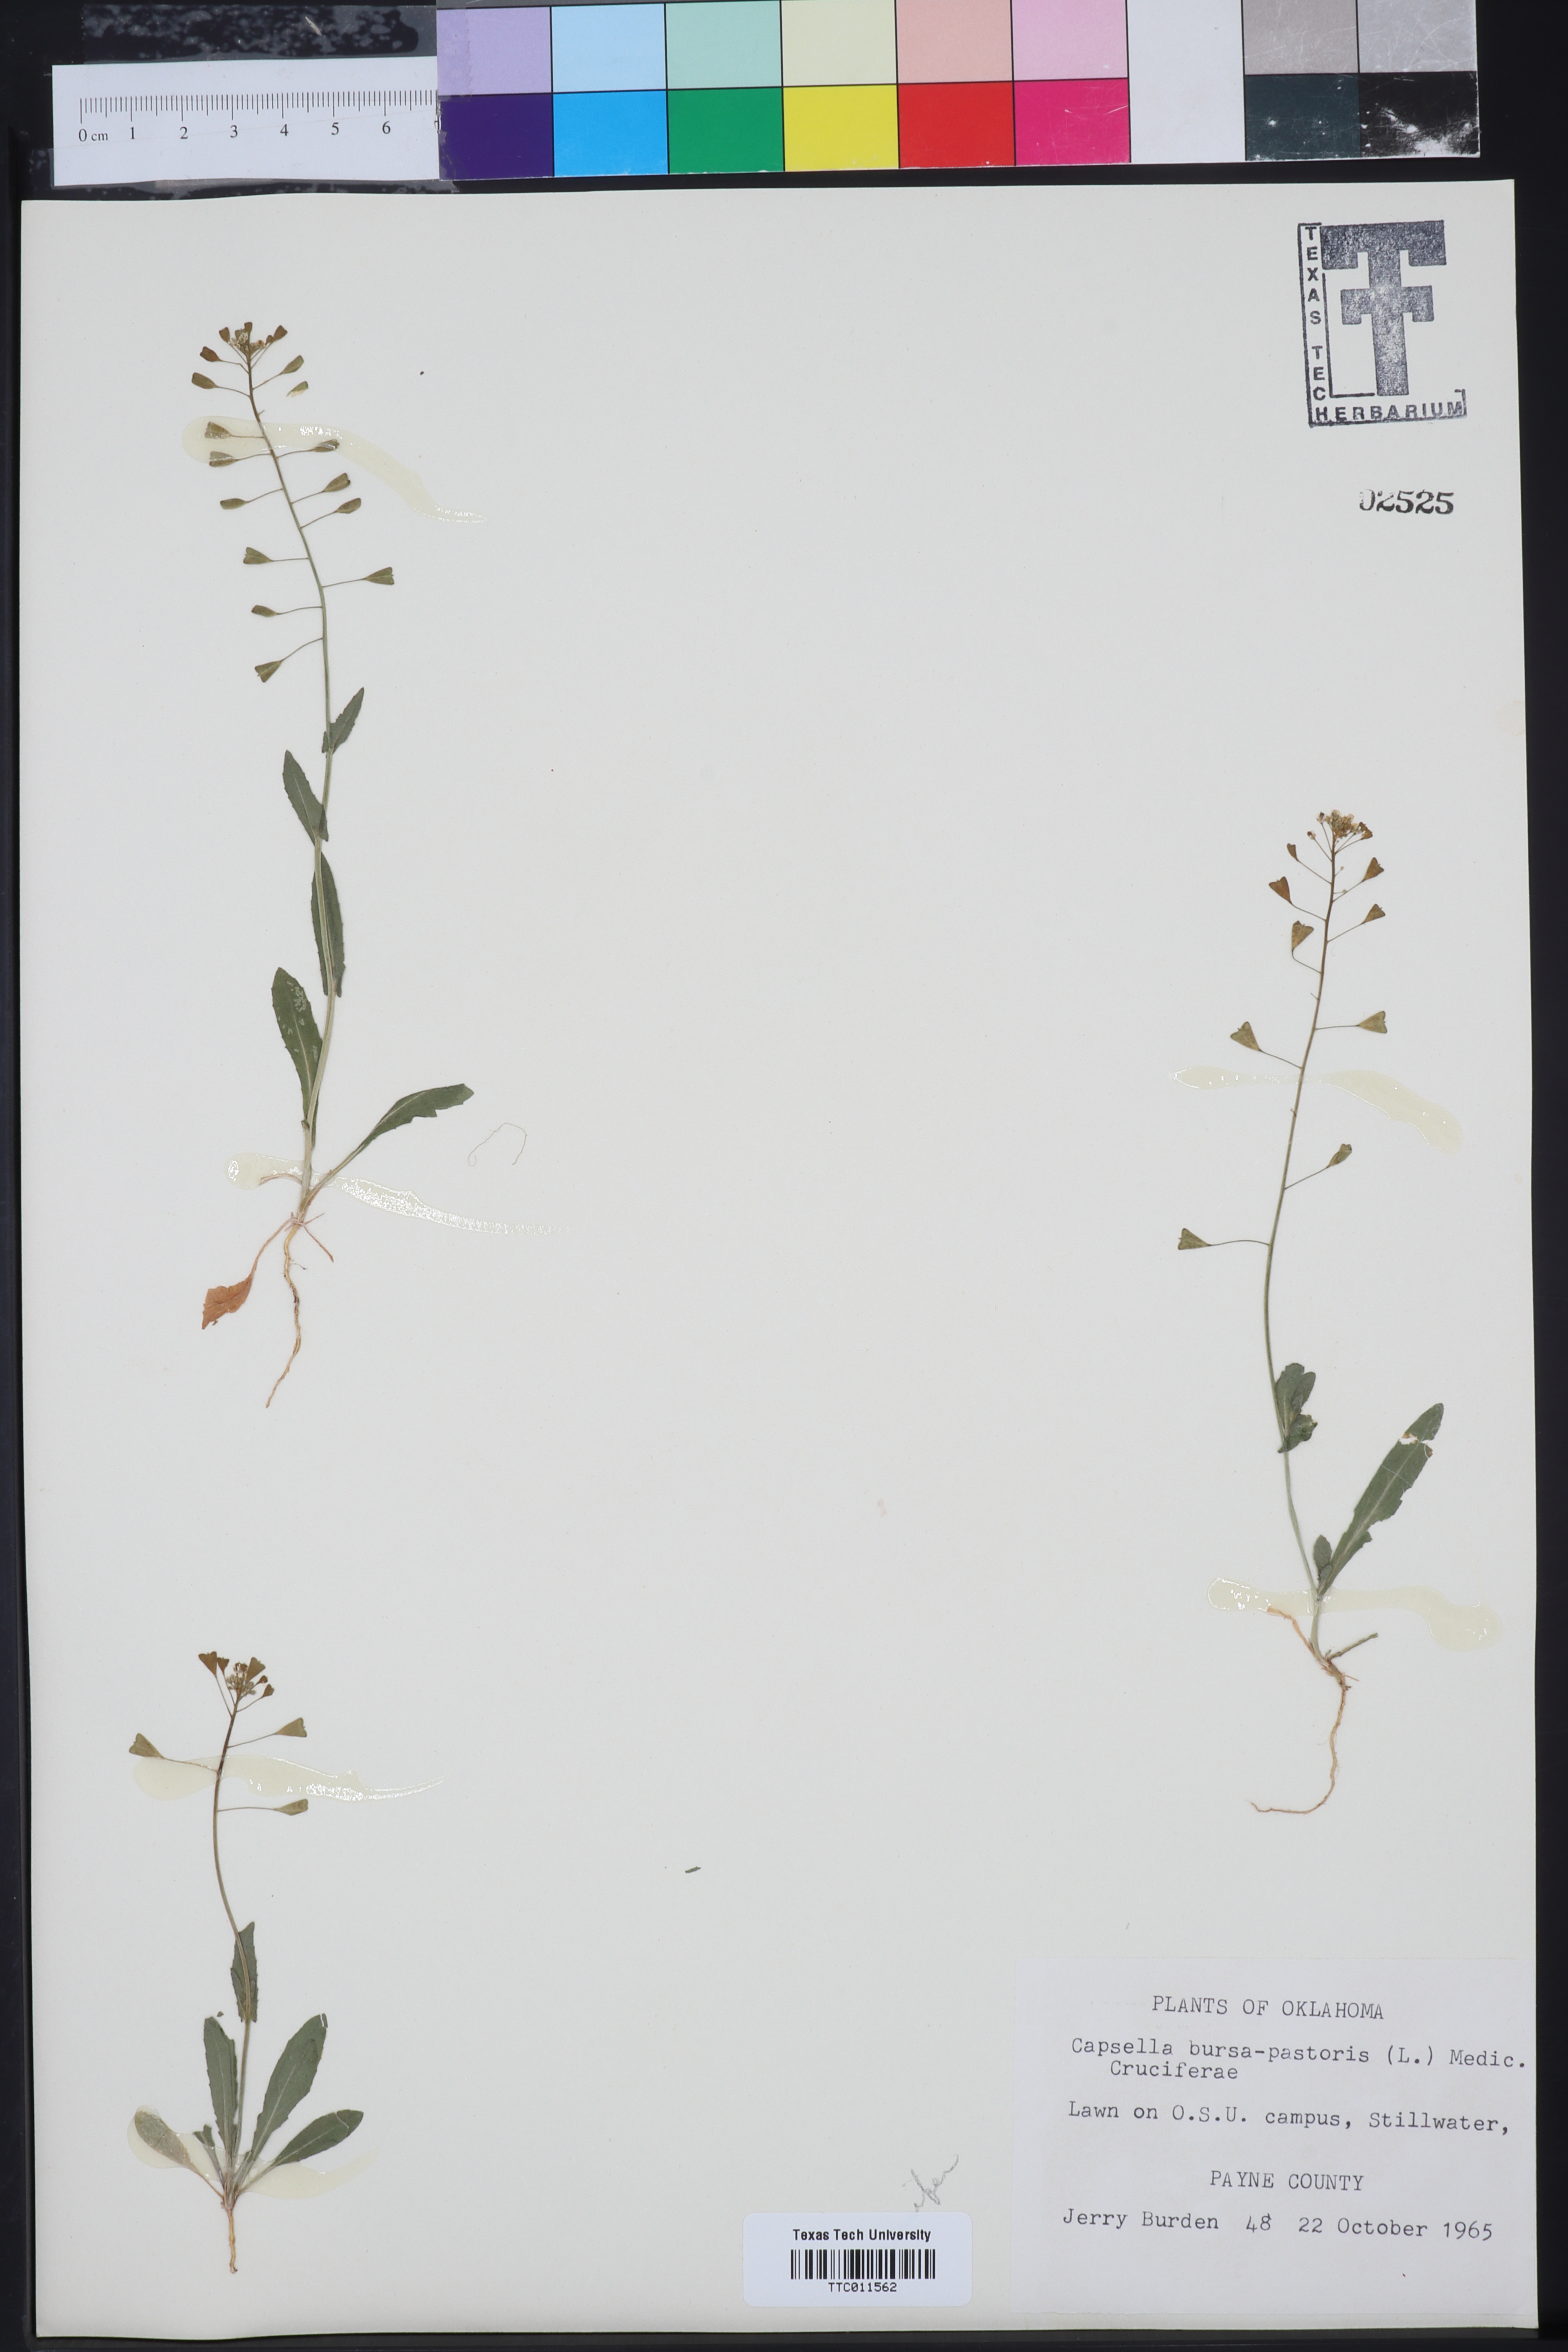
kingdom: Plantae
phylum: Tracheophyta
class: Magnoliopsida
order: Brassicales
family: Brassicaceae
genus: Capsella
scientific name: Capsella bursa-pastoris
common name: Shepherd's purse
